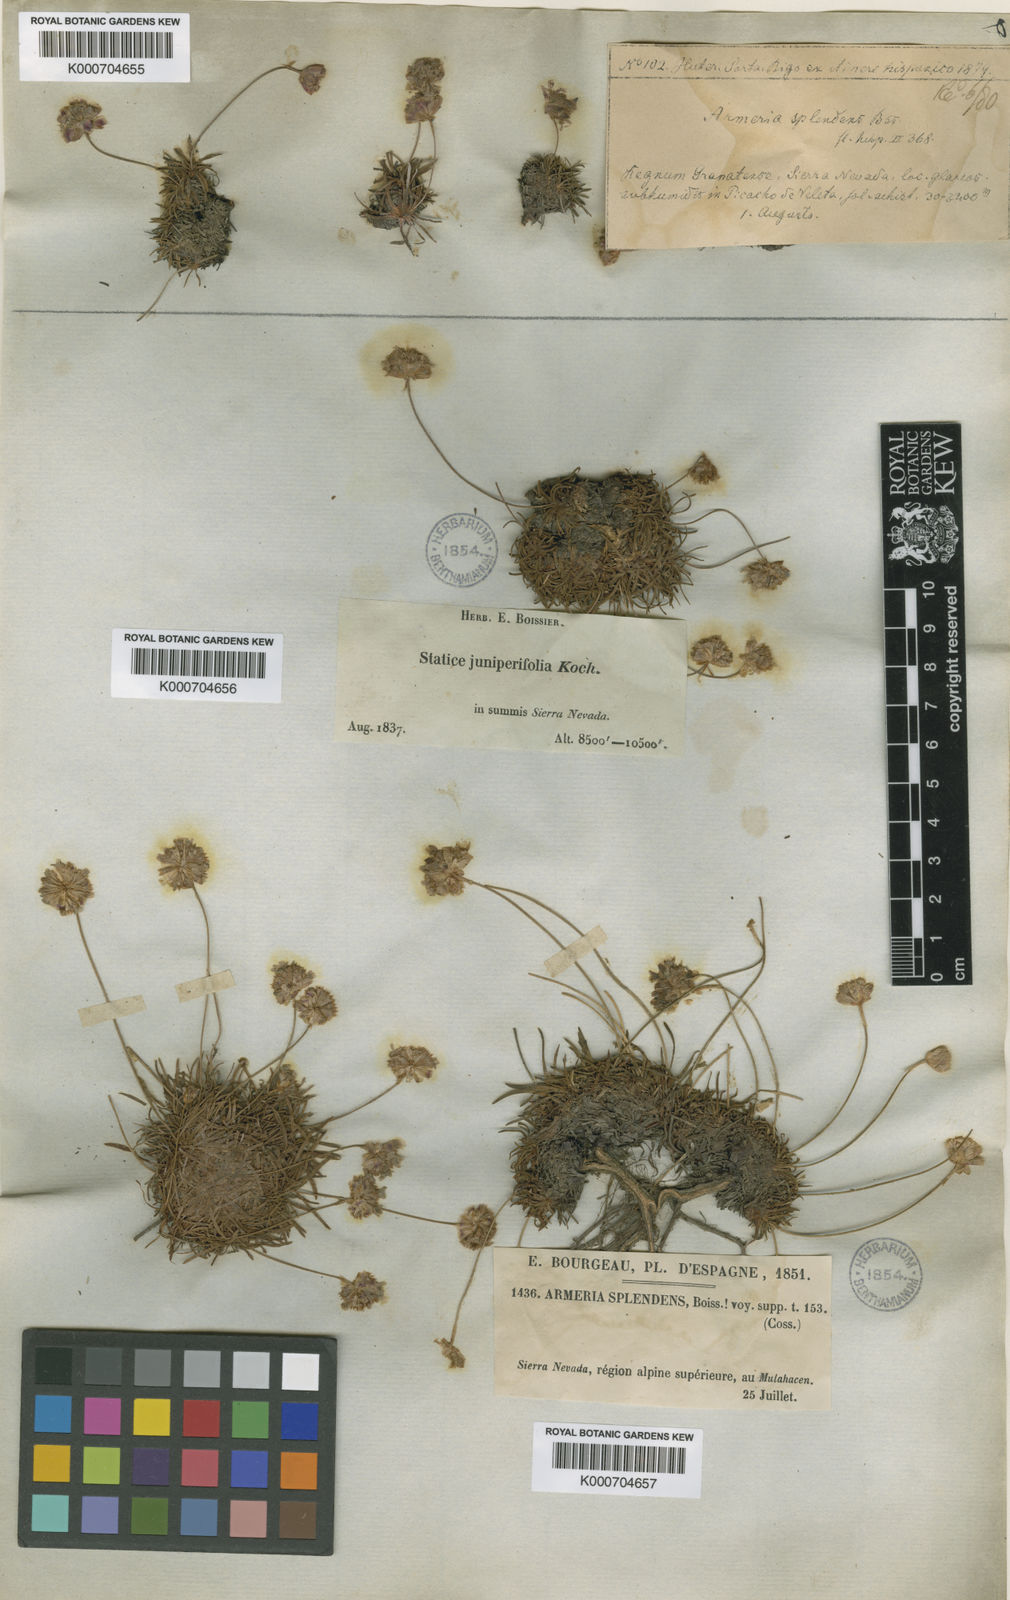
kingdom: Plantae
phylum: Tracheophyta
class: Magnoliopsida
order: Caryophyllales
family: Plumbaginaceae
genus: Armeria
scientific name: Armeria
